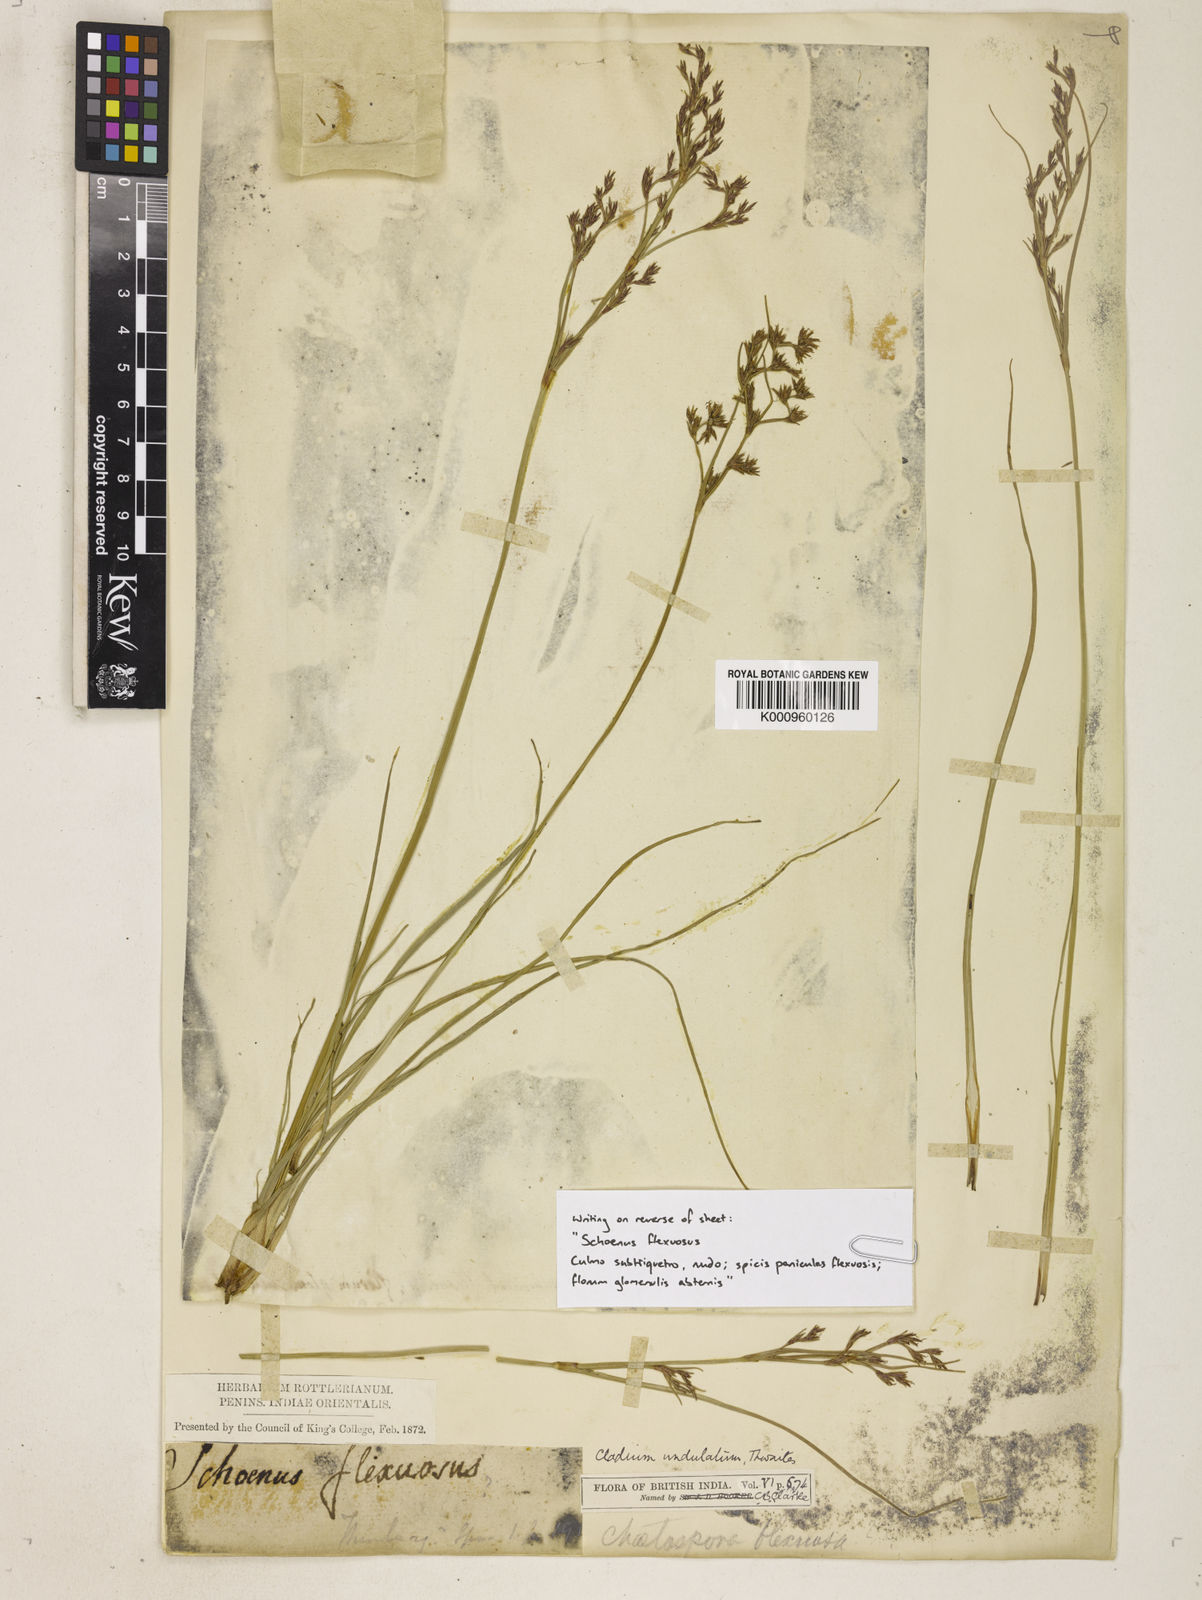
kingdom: Plantae
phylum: Tracheophyta
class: Liliopsida
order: Poales
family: Cyperaceae
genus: Anthelepis
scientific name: Anthelepis undulata
